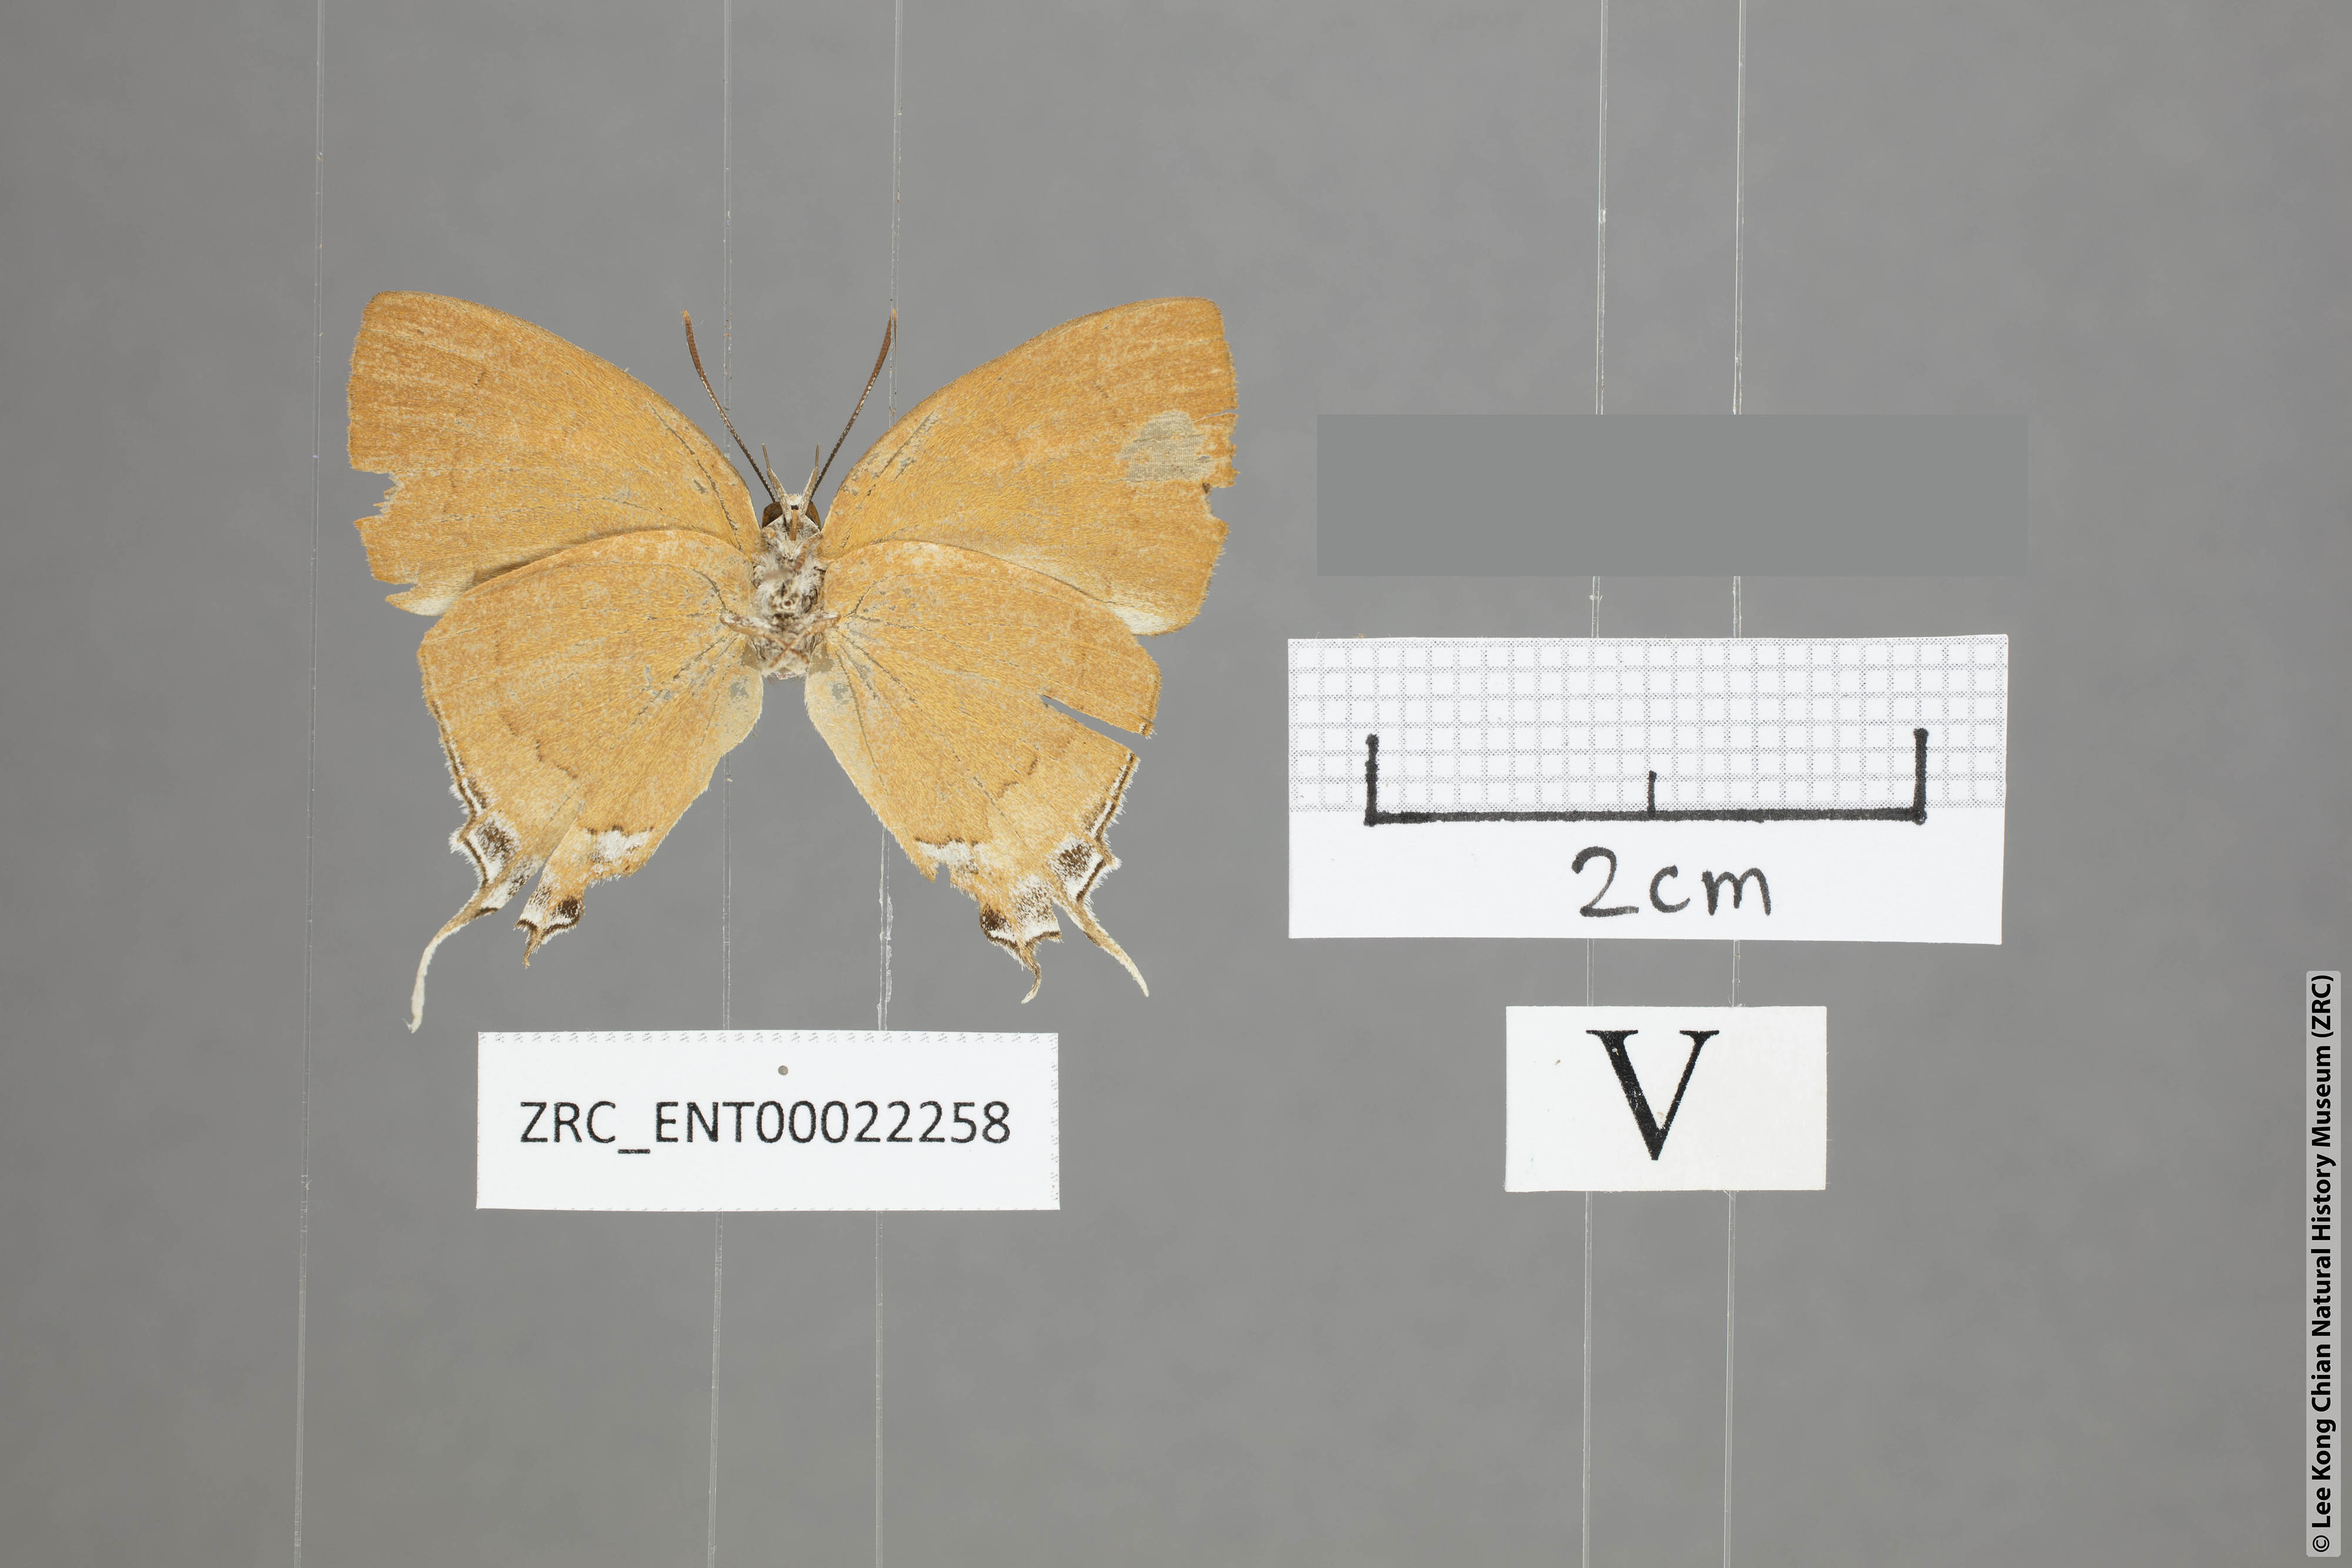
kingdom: Animalia
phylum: Arthropoda
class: Insecta
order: Lepidoptera
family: Lycaenidae
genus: Thamala
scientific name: Thamala marciana
